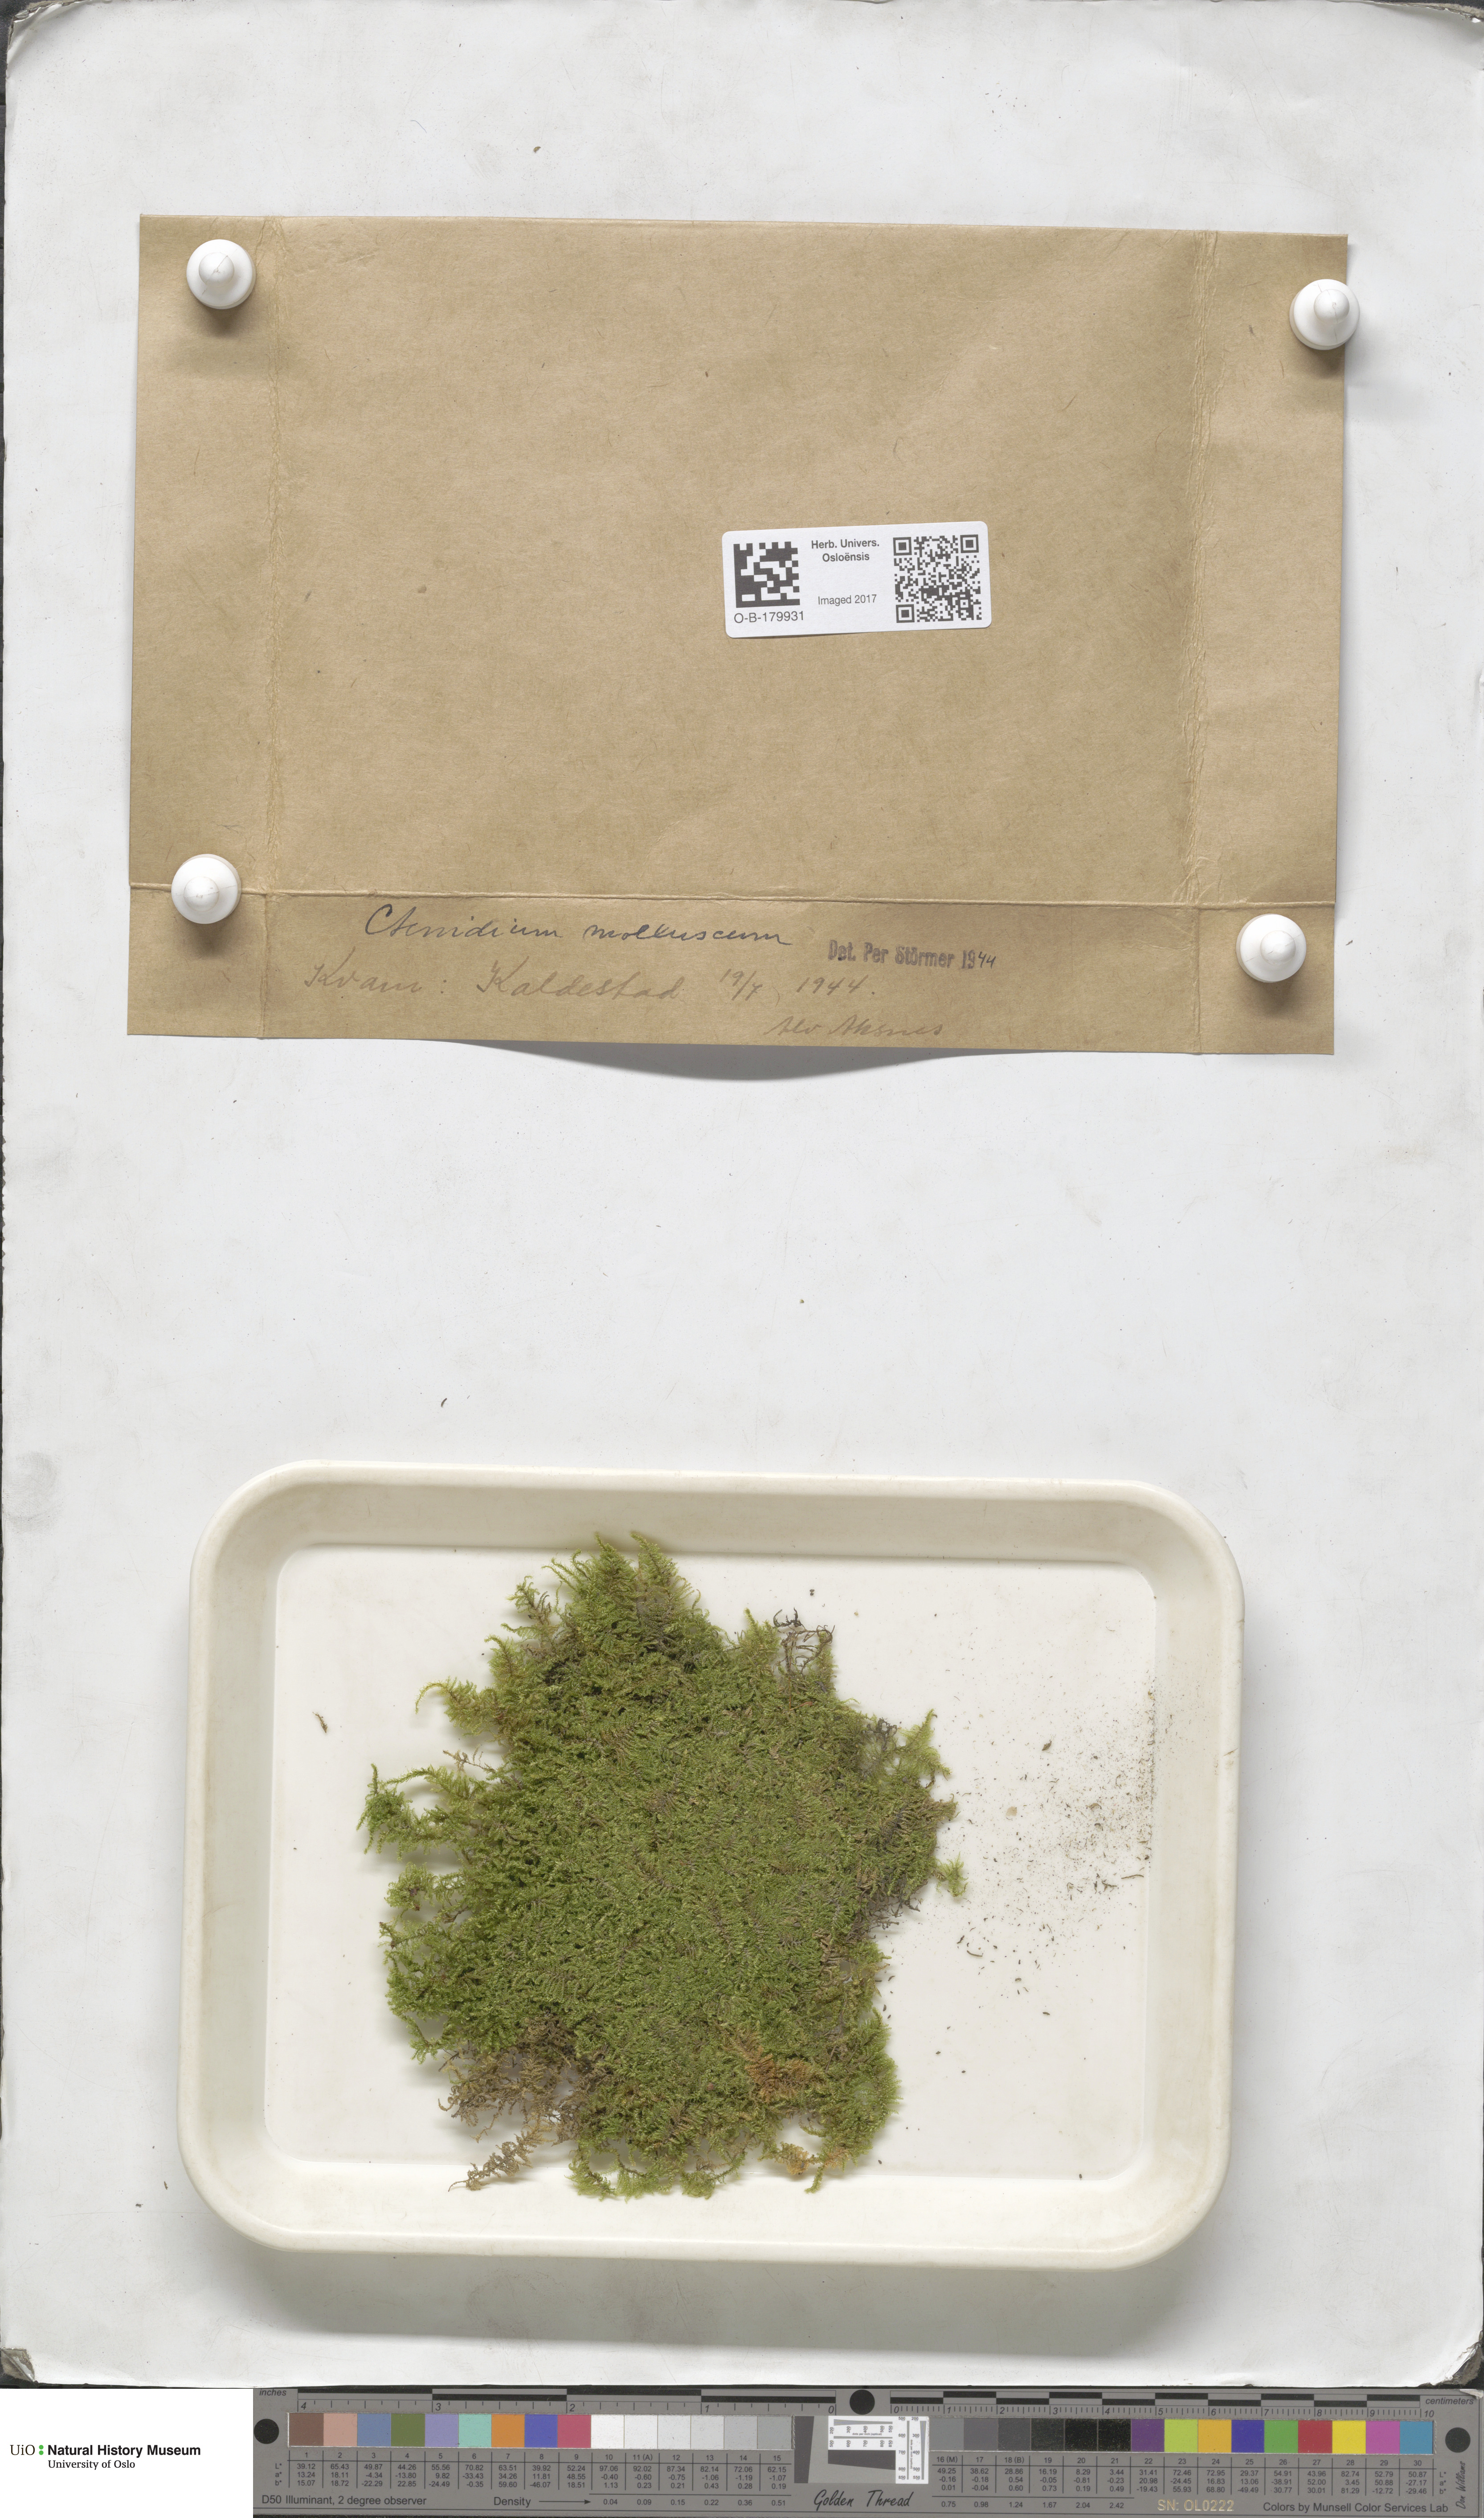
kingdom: Plantae
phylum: Bryophyta
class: Bryopsida
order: Hypnales
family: Myuriaceae
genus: Ctenidium
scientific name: Ctenidium molluscum
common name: Chalk comb-moss
